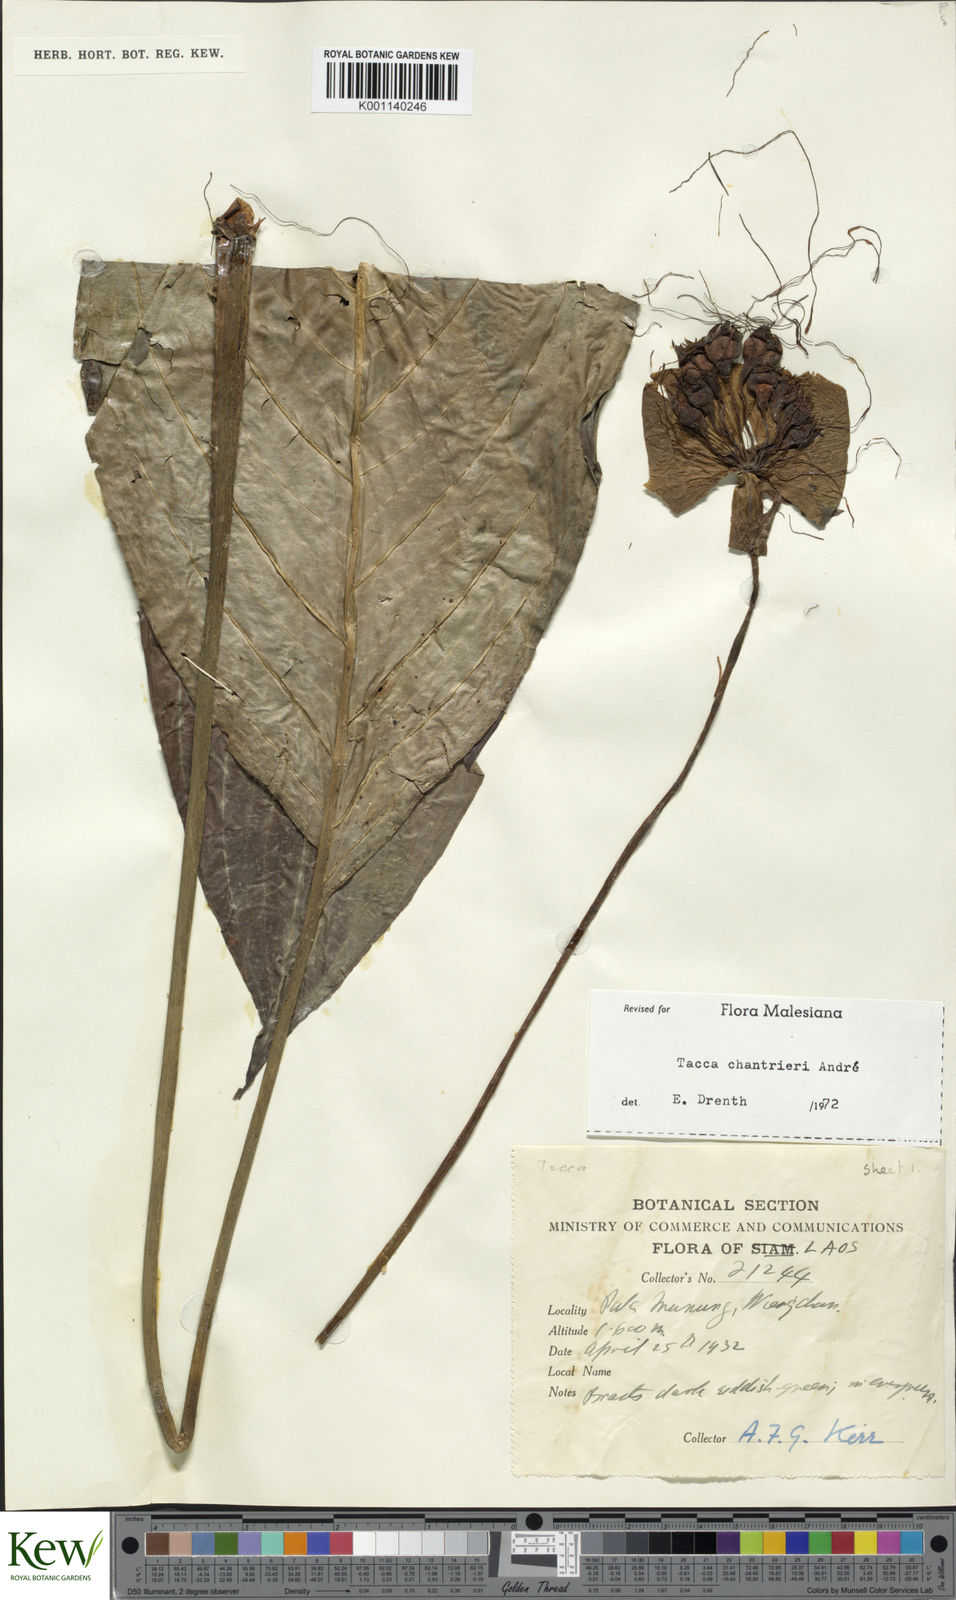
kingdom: Plantae
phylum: Tracheophyta
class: Liliopsida
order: Dioscoreales
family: Dioscoreaceae
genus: Tacca
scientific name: Tacca
